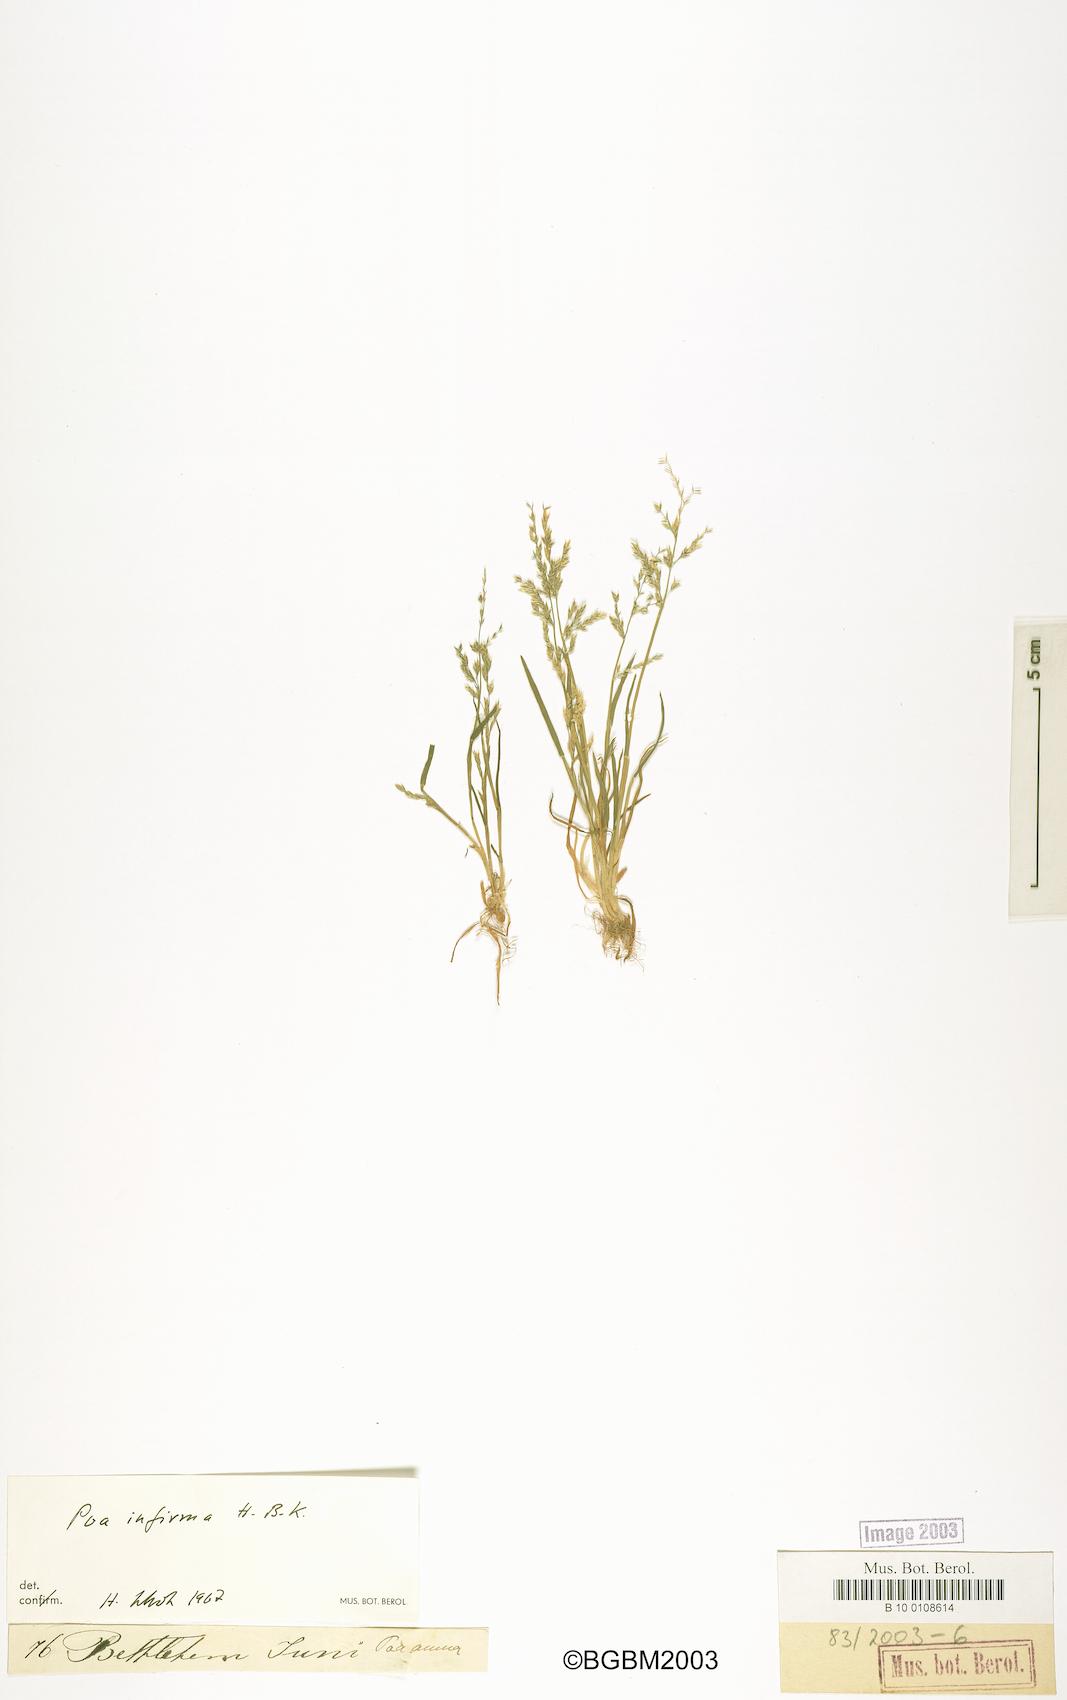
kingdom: Plantae
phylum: Tracheophyta
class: Liliopsida
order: Poales
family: Poaceae
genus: Poa
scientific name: Poa infirma
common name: Weak bluegrass
